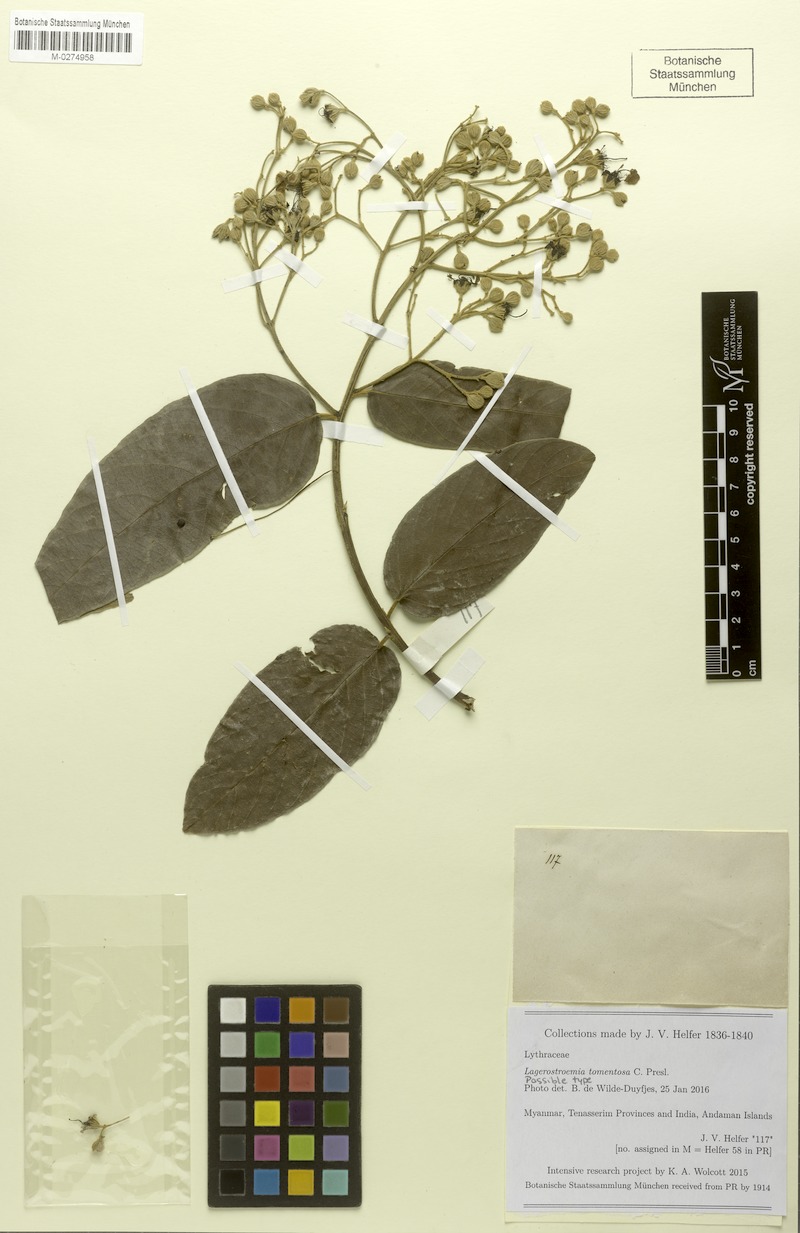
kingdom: Plantae
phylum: Tracheophyta
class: Magnoliopsida
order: Myrtales
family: Lythraceae
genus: Lagerstroemia
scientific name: Lagerstroemia tomentosa
